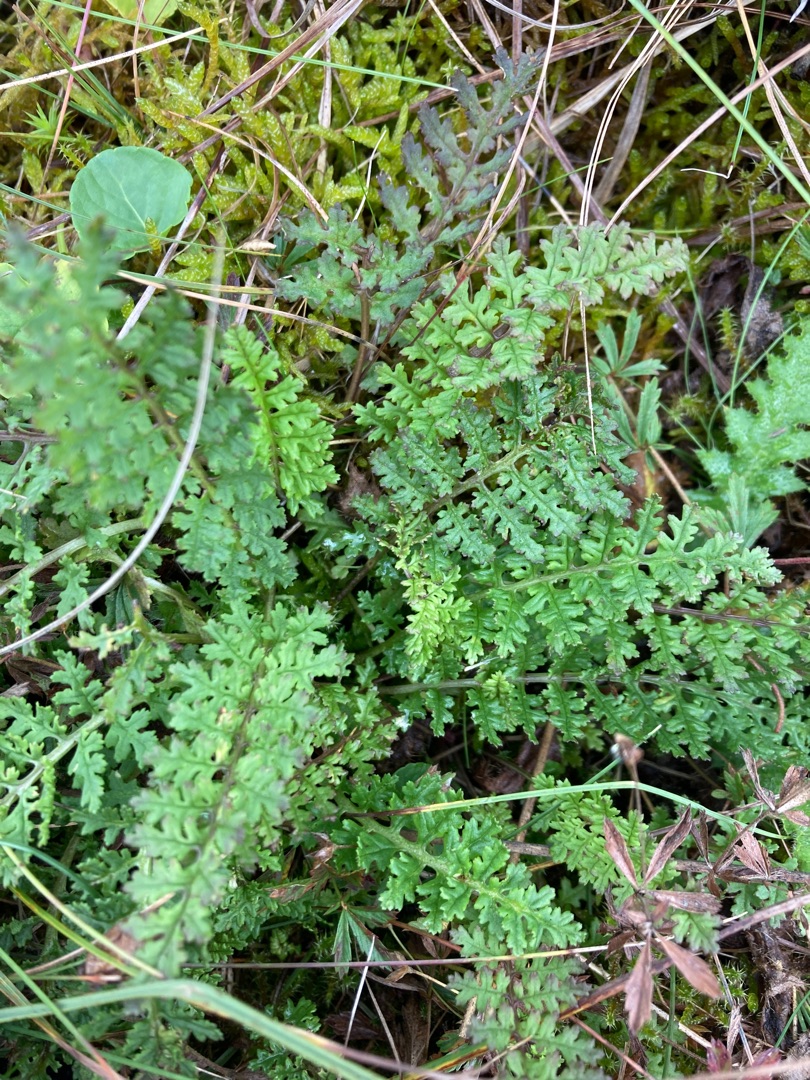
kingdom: Plantae
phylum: Tracheophyta
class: Magnoliopsida
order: Lamiales
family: Orobanchaceae
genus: Pedicularis
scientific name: Pedicularis sylvatica
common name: Mose-troldurt
